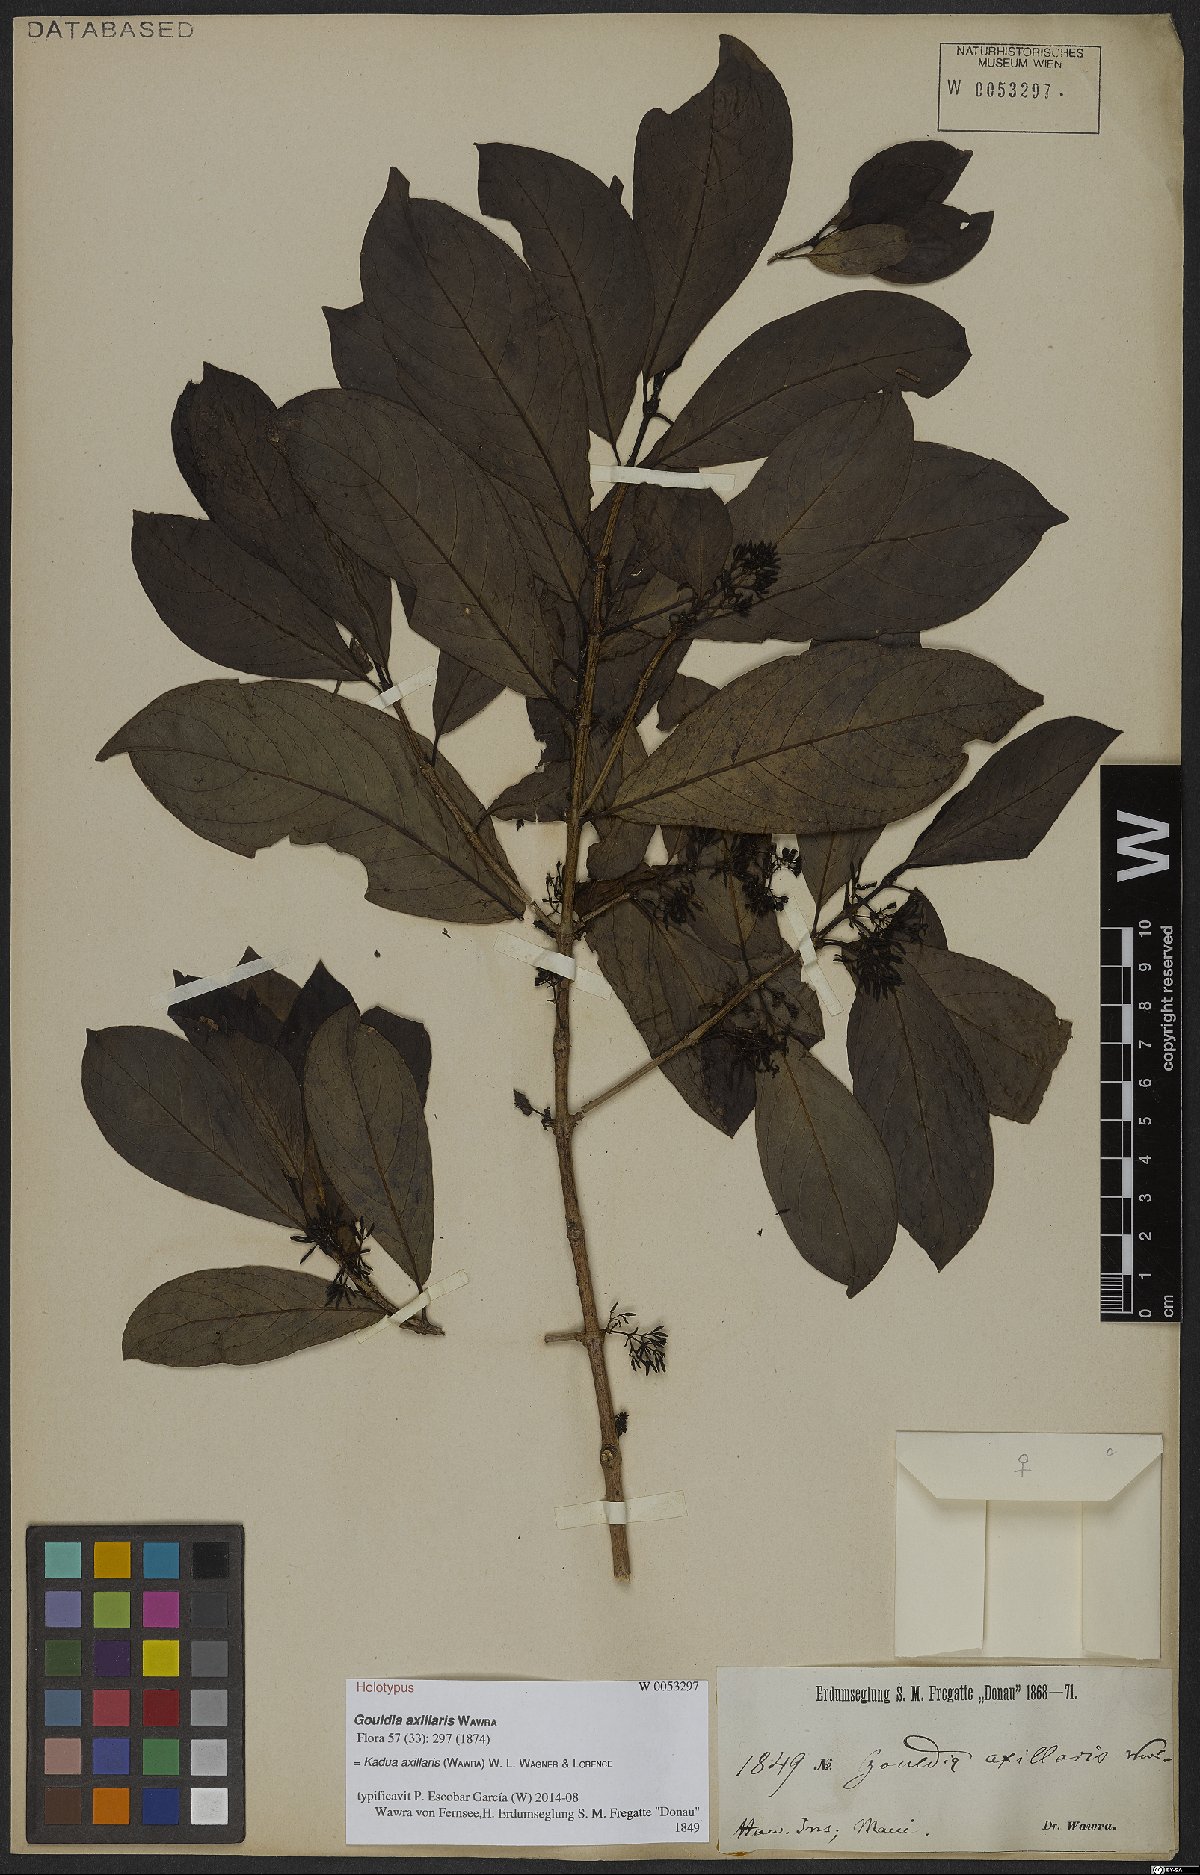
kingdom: Plantae
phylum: Tracheophyta
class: Magnoliopsida
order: Gentianales
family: Rubiaceae
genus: Kadua
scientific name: Kadua axillaris
